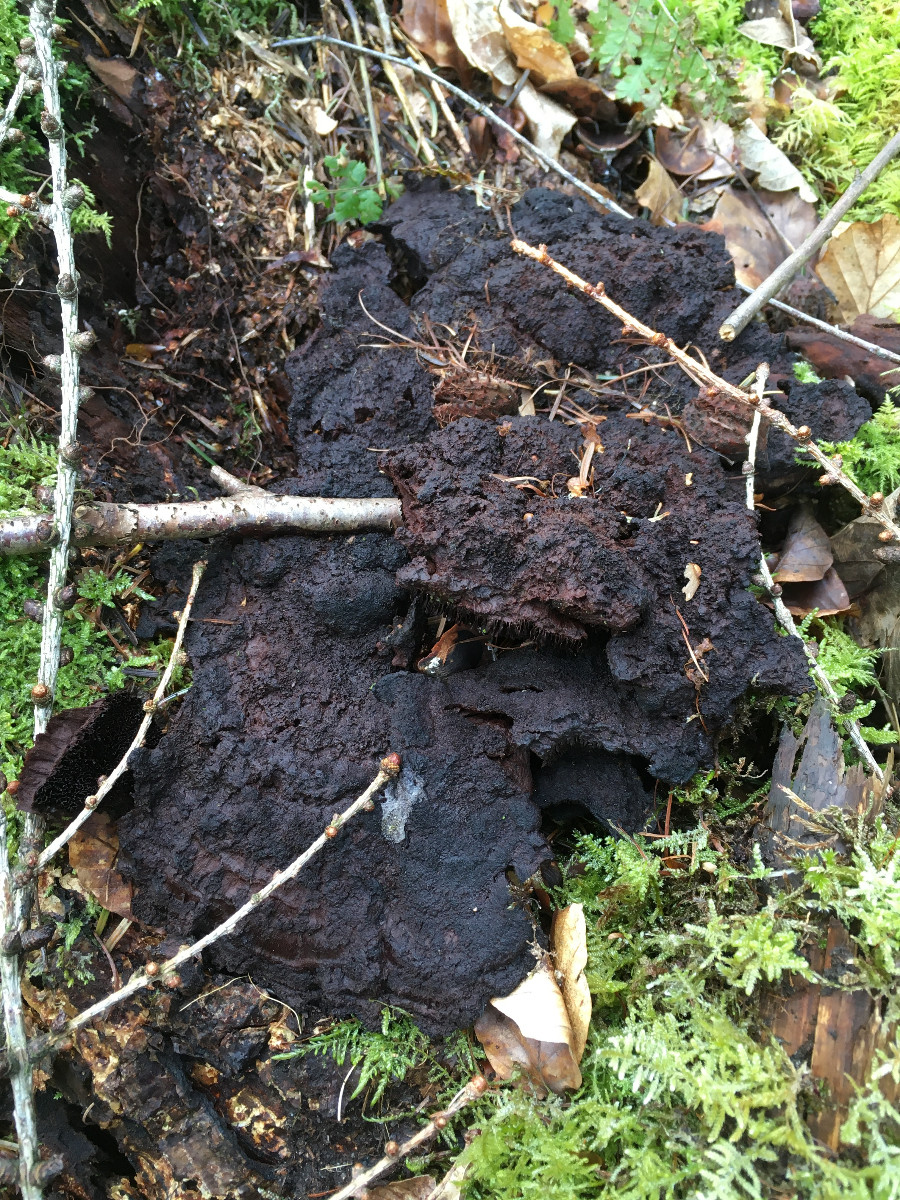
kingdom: Fungi
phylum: Basidiomycota
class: Agaricomycetes
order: Polyporales
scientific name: Polyporales
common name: poresvampordenen
